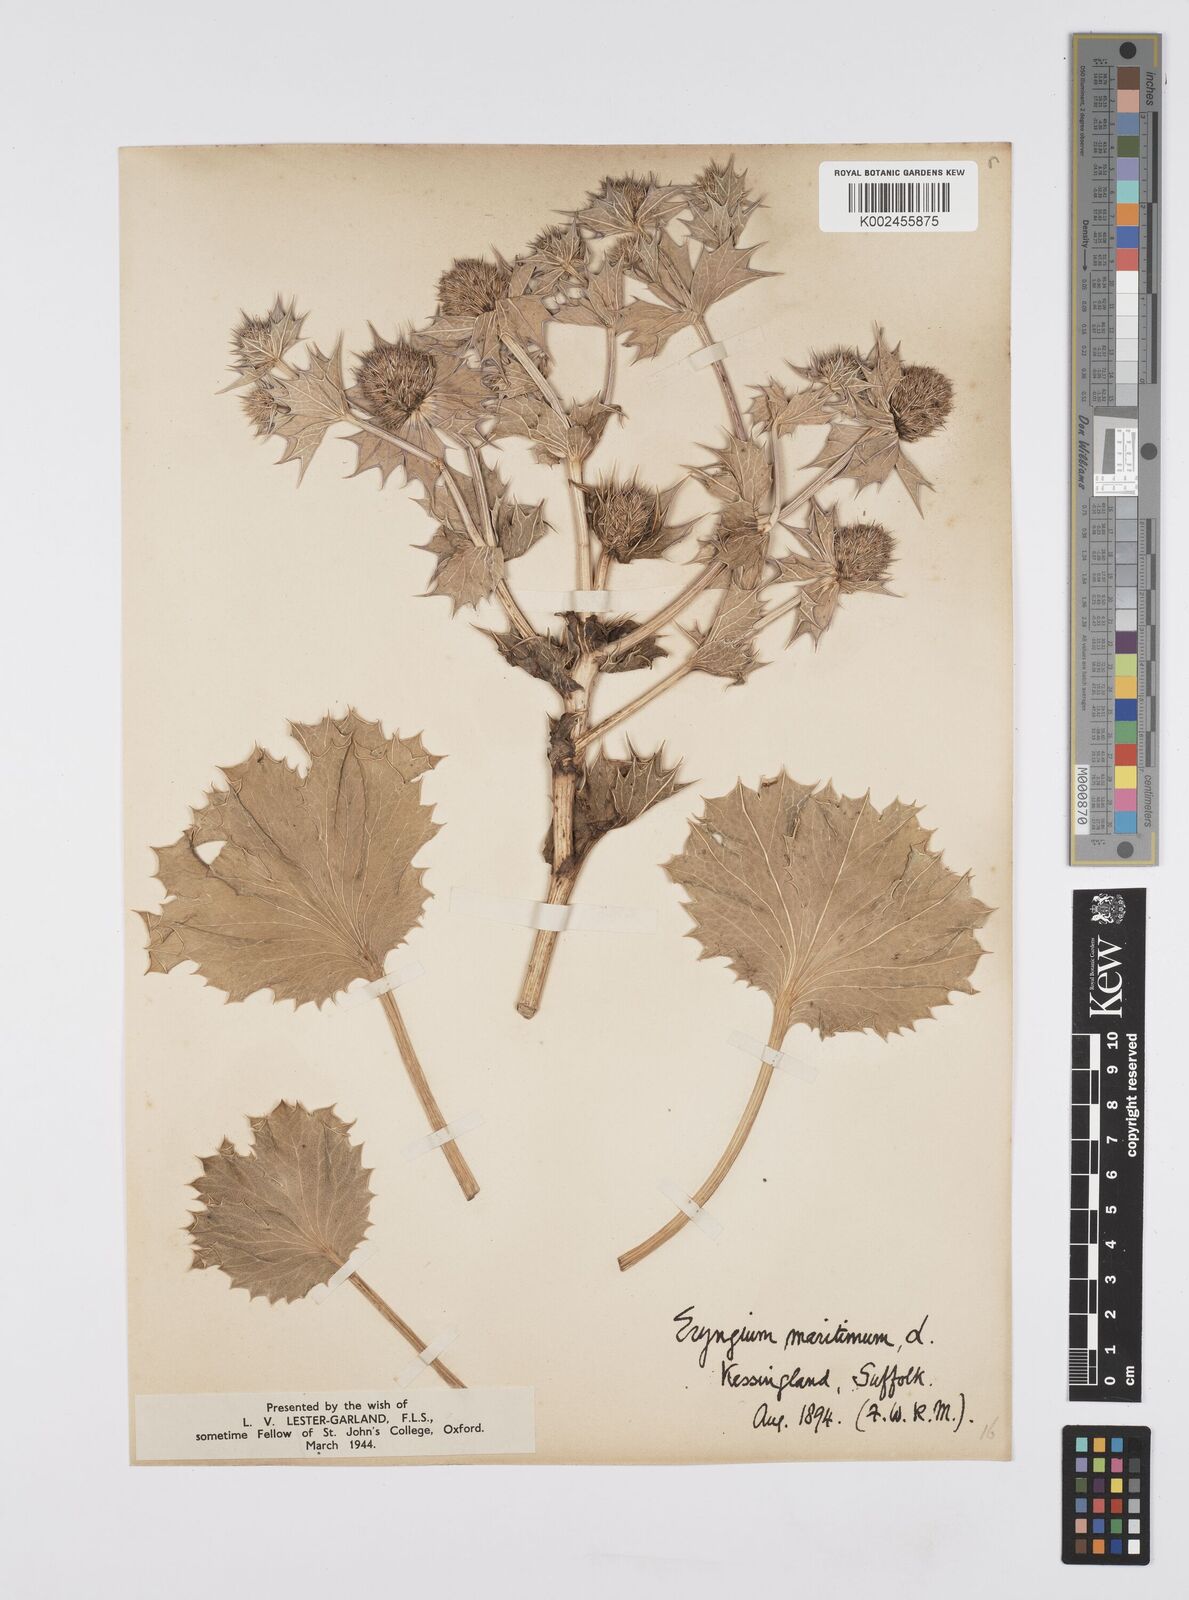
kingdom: Plantae
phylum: Tracheophyta
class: Magnoliopsida
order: Apiales
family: Apiaceae
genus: Eryngium
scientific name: Eryngium maritimum
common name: Sea-holly
